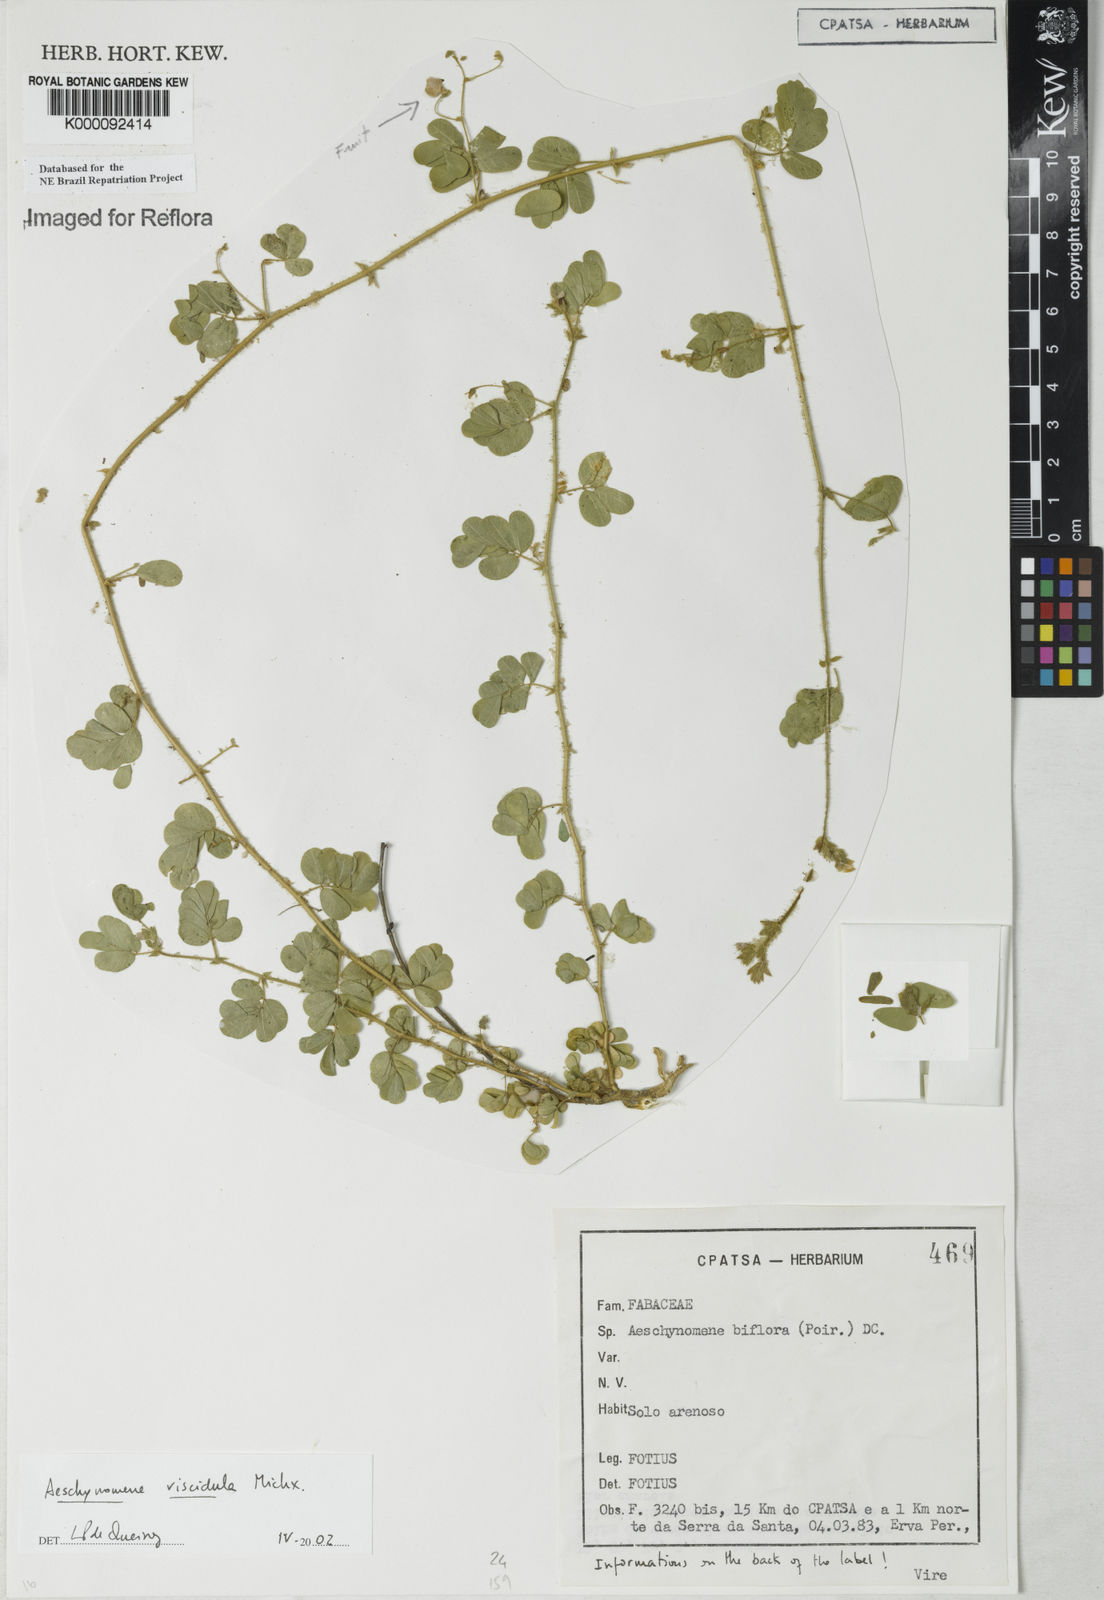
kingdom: Plantae
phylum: Tracheophyta
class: Magnoliopsida
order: Fabales
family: Fabaceae
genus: Ctenodon
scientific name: Ctenodon viscidulus
